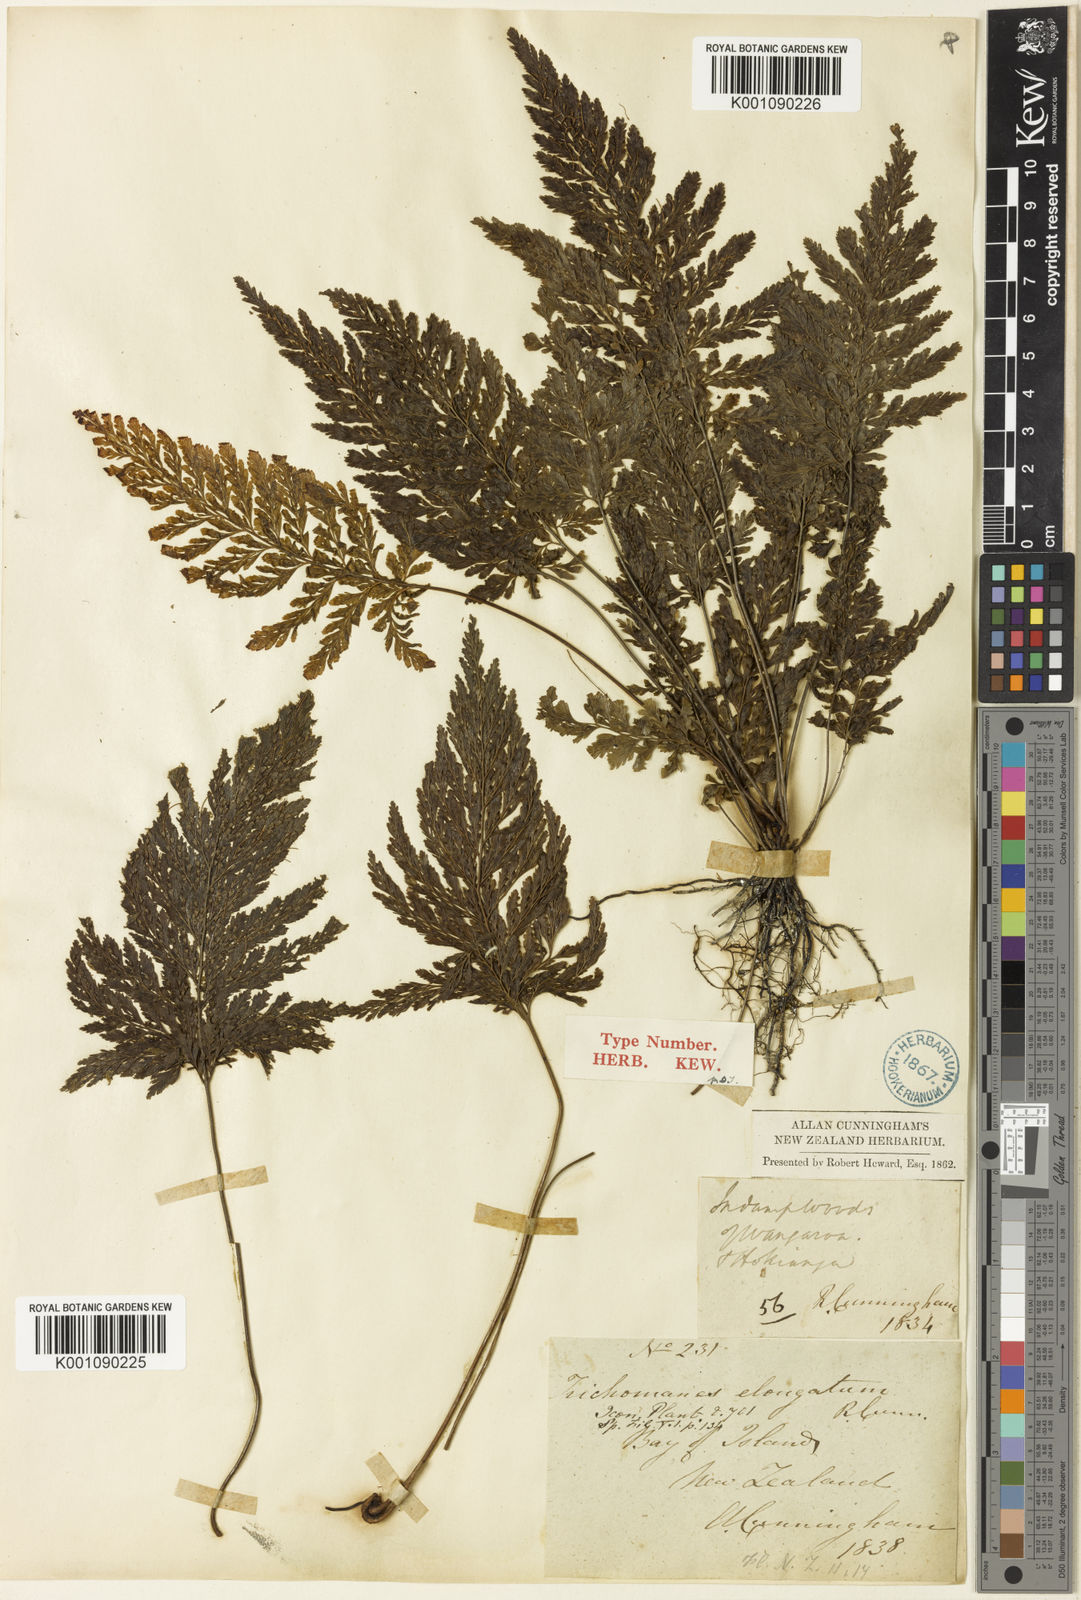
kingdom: Plantae
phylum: Tracheophyta
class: Polypodiopsida
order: Hymenophyllales
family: Hymenophyllaceae
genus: Abrodictyum
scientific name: Abrodictyum elongatum
